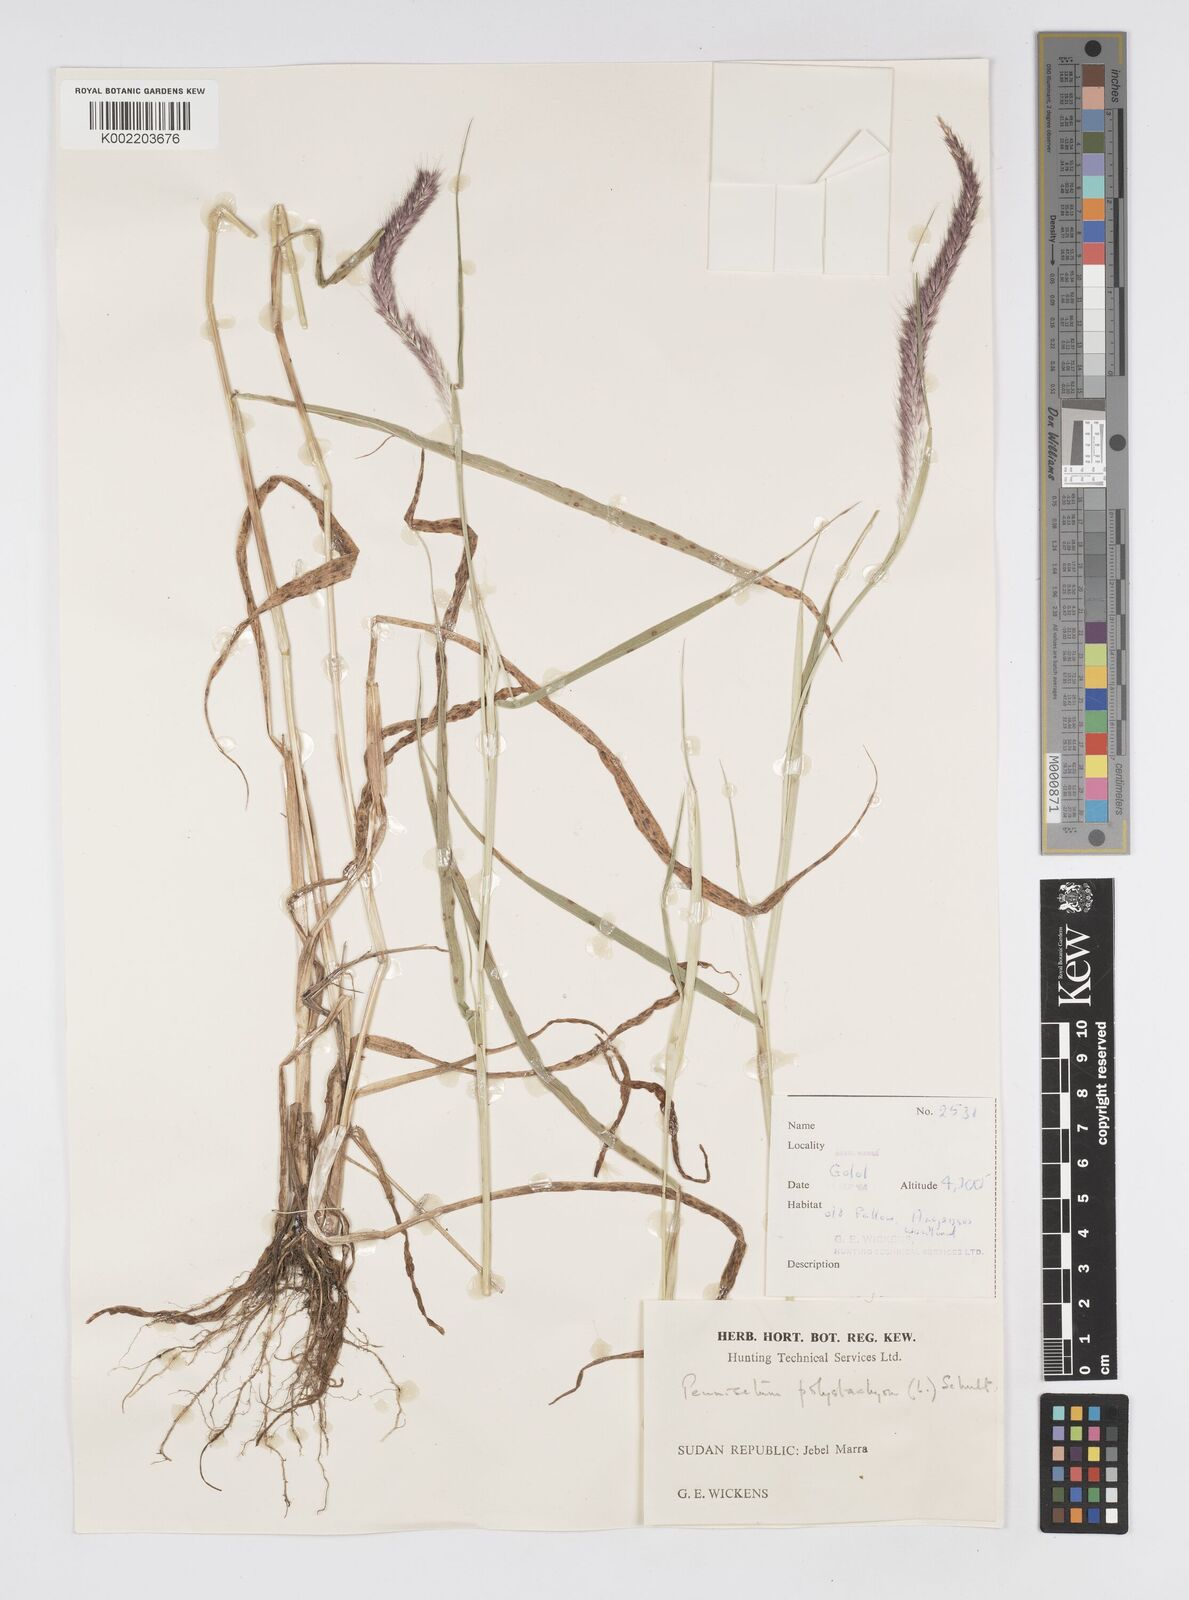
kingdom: Plantae
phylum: Tracheophyta
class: Liliopsida
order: Poales
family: Poaceae
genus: Setaria
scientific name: Setaria parviflora
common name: Knotroot bristle-grass
